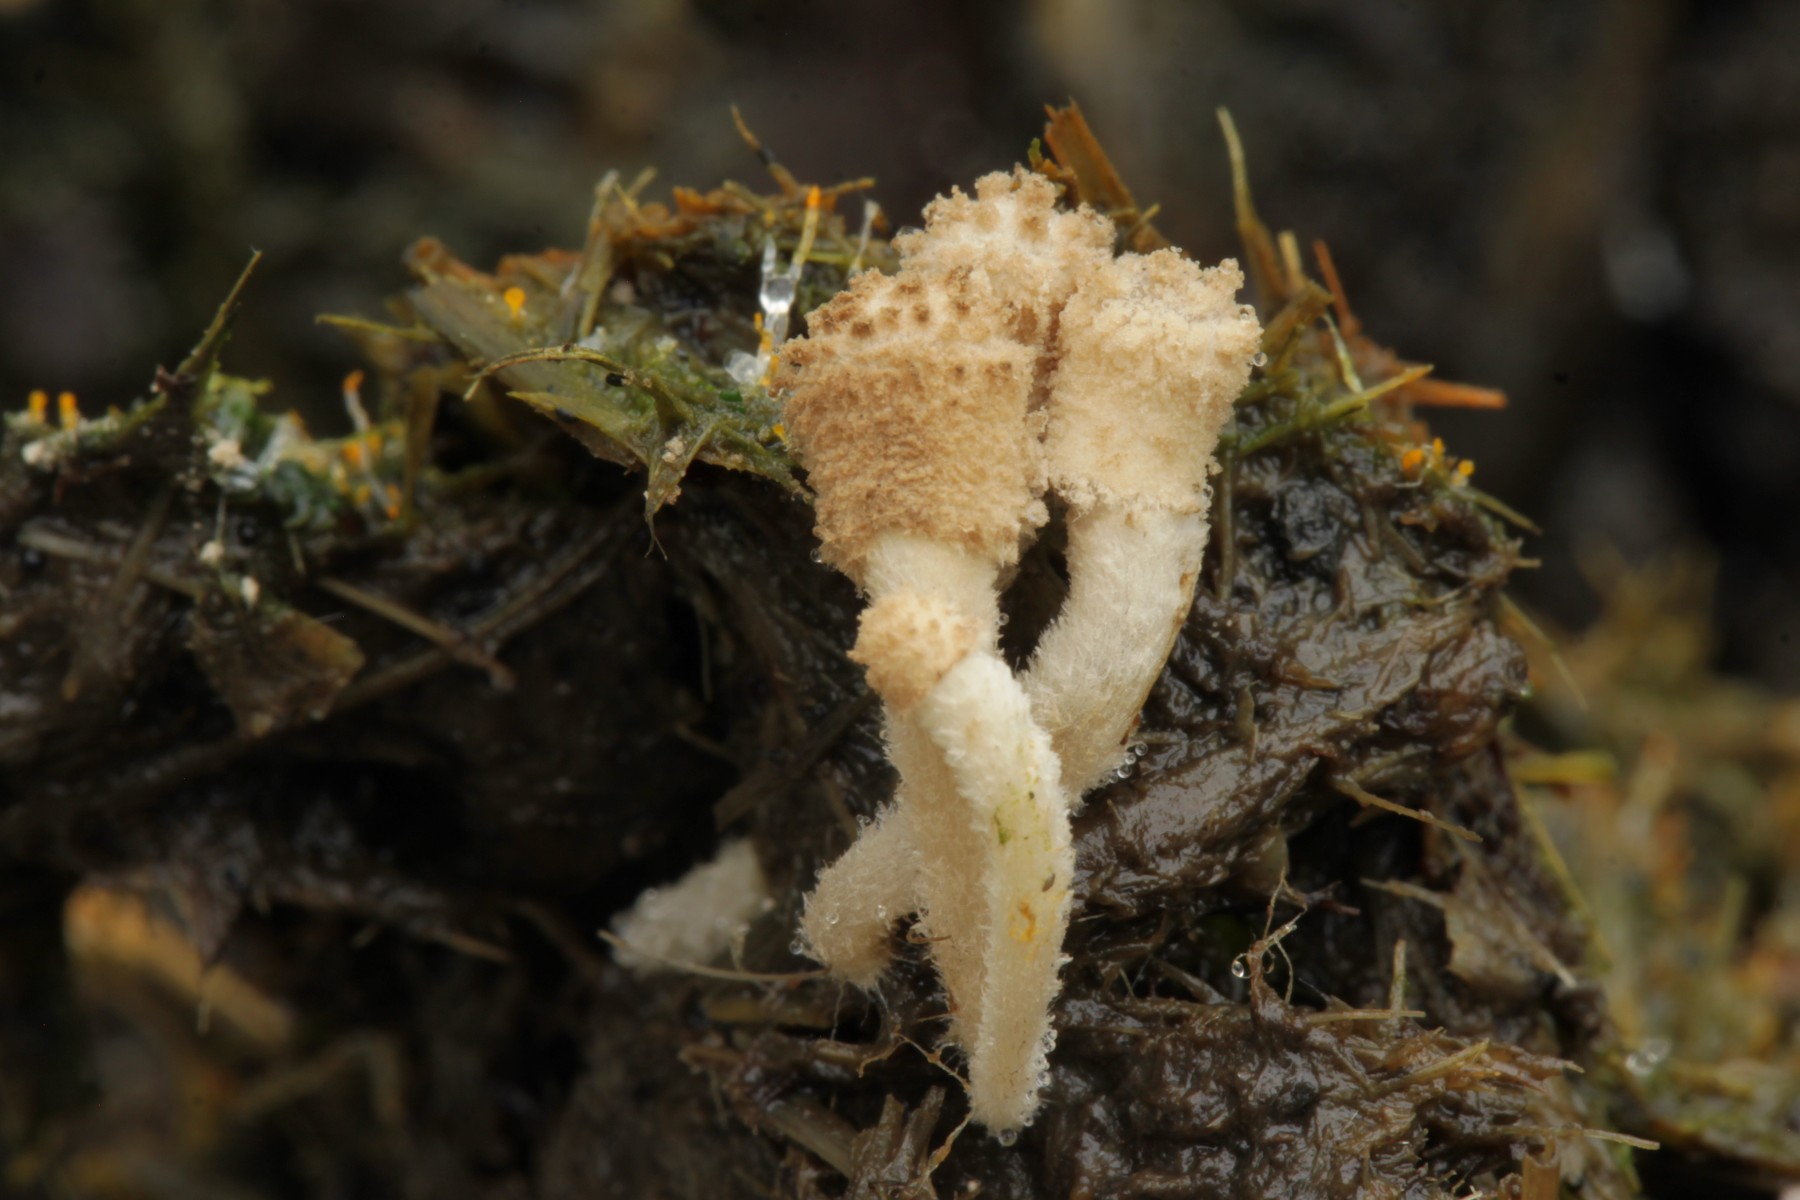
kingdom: Fungi
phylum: Basidiomycota
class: Agaricomycetes
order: Agaricales
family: Psathyrellaceae
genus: Coprinopsis
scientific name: Coprinopsis tuberosa
